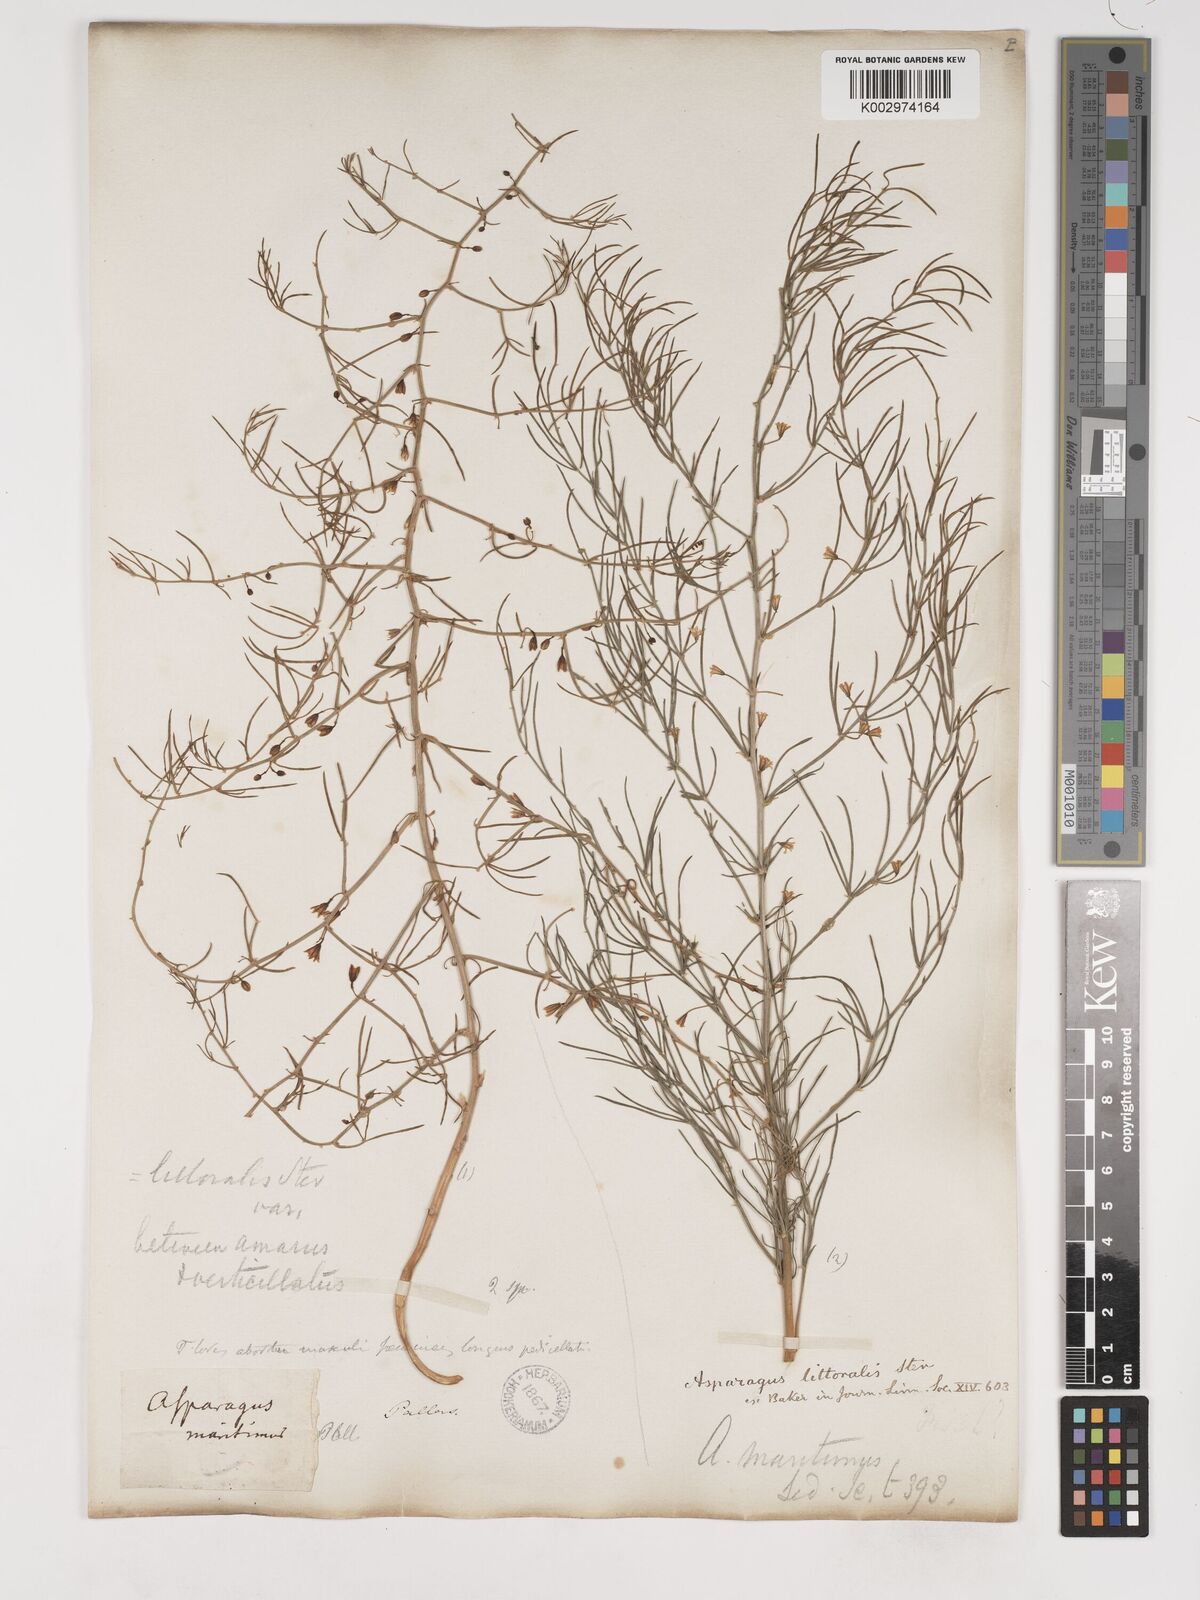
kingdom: Plantae
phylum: Tracheophyta
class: Liliopsida
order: Asparagales
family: Asparagaceae
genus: Asparagus
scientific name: Asparagus
